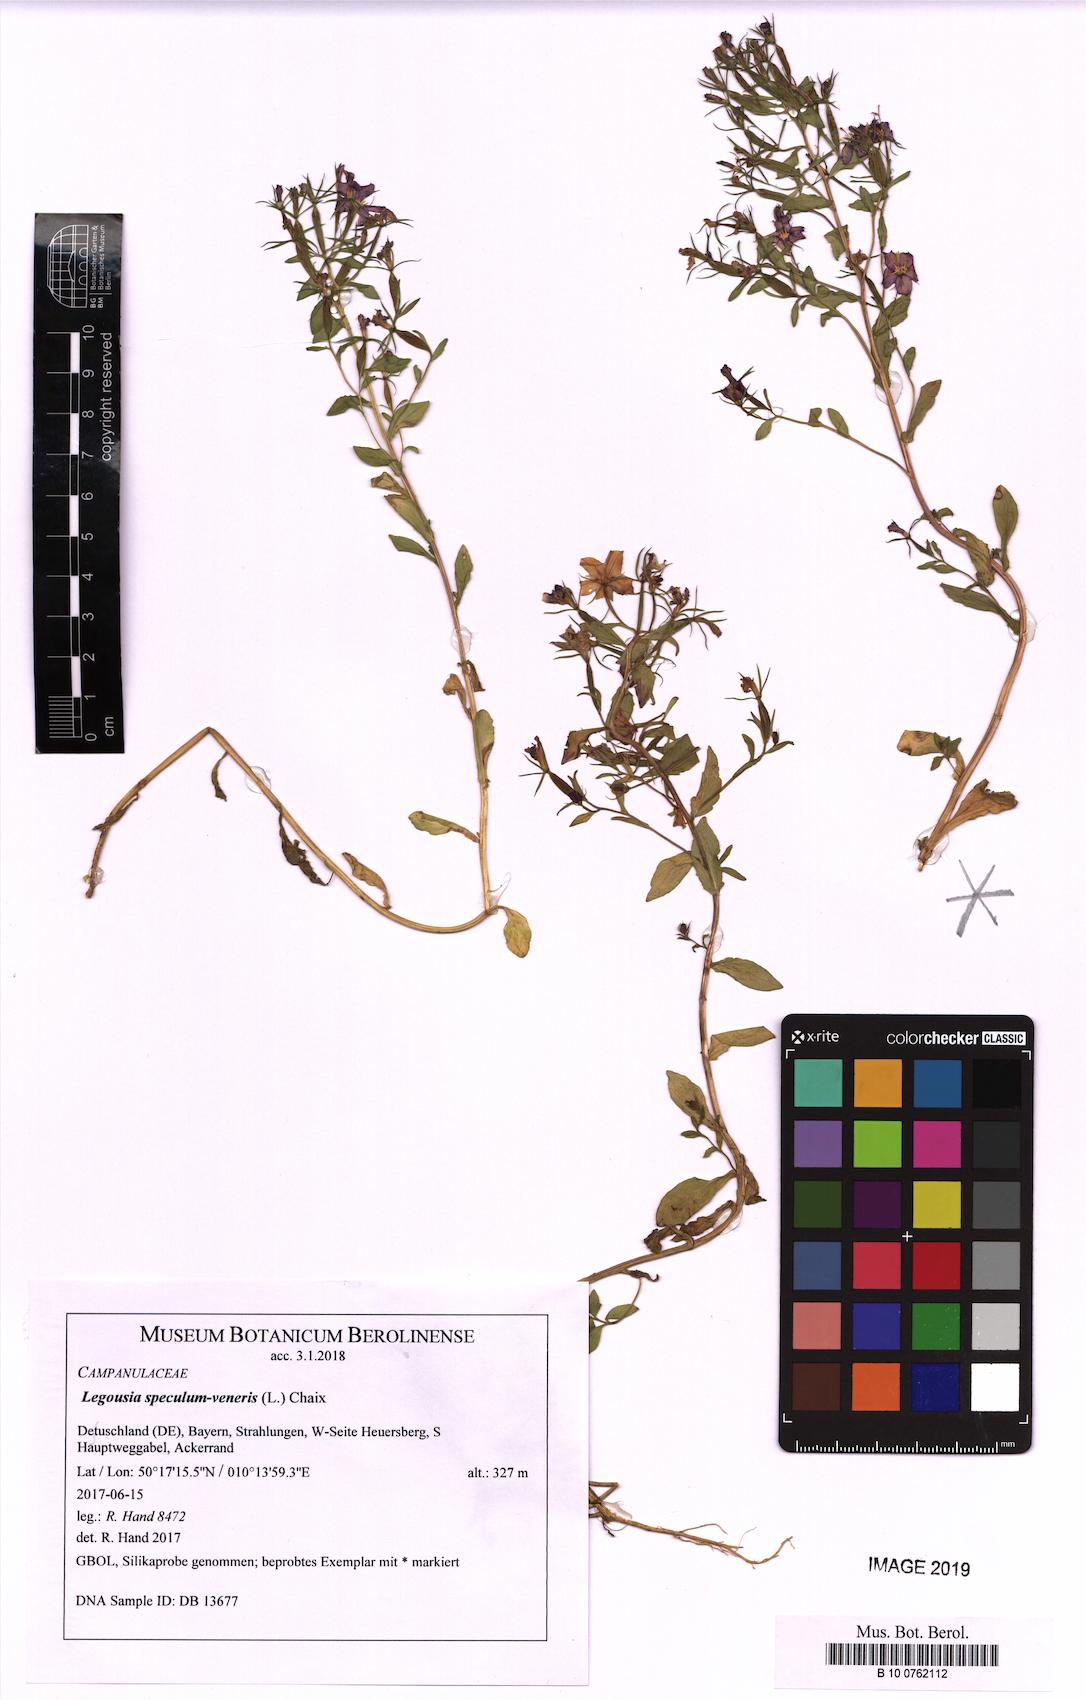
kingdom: Plantae
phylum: Tracheophyta
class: Magnoliopsida
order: Asterales
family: Campanulaceae
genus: Legousia
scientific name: Legousia speculum-veneris
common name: Large venus's-looking-glass
